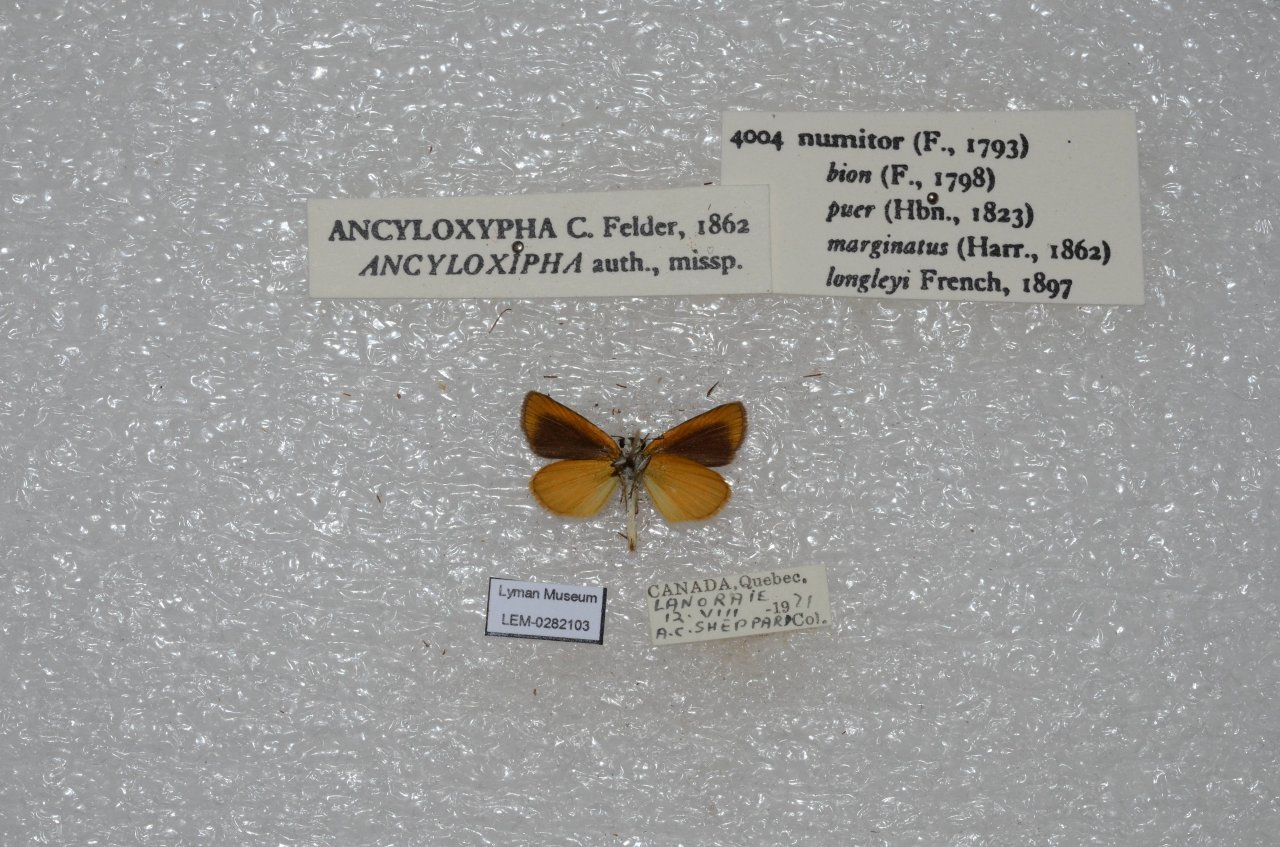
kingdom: Animalia
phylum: Arthropoda
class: Insecta
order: Lepidoptera
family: Hesperiidae
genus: Ancyloxypha
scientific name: Ancyloxypha numitor
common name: Least Skipper
